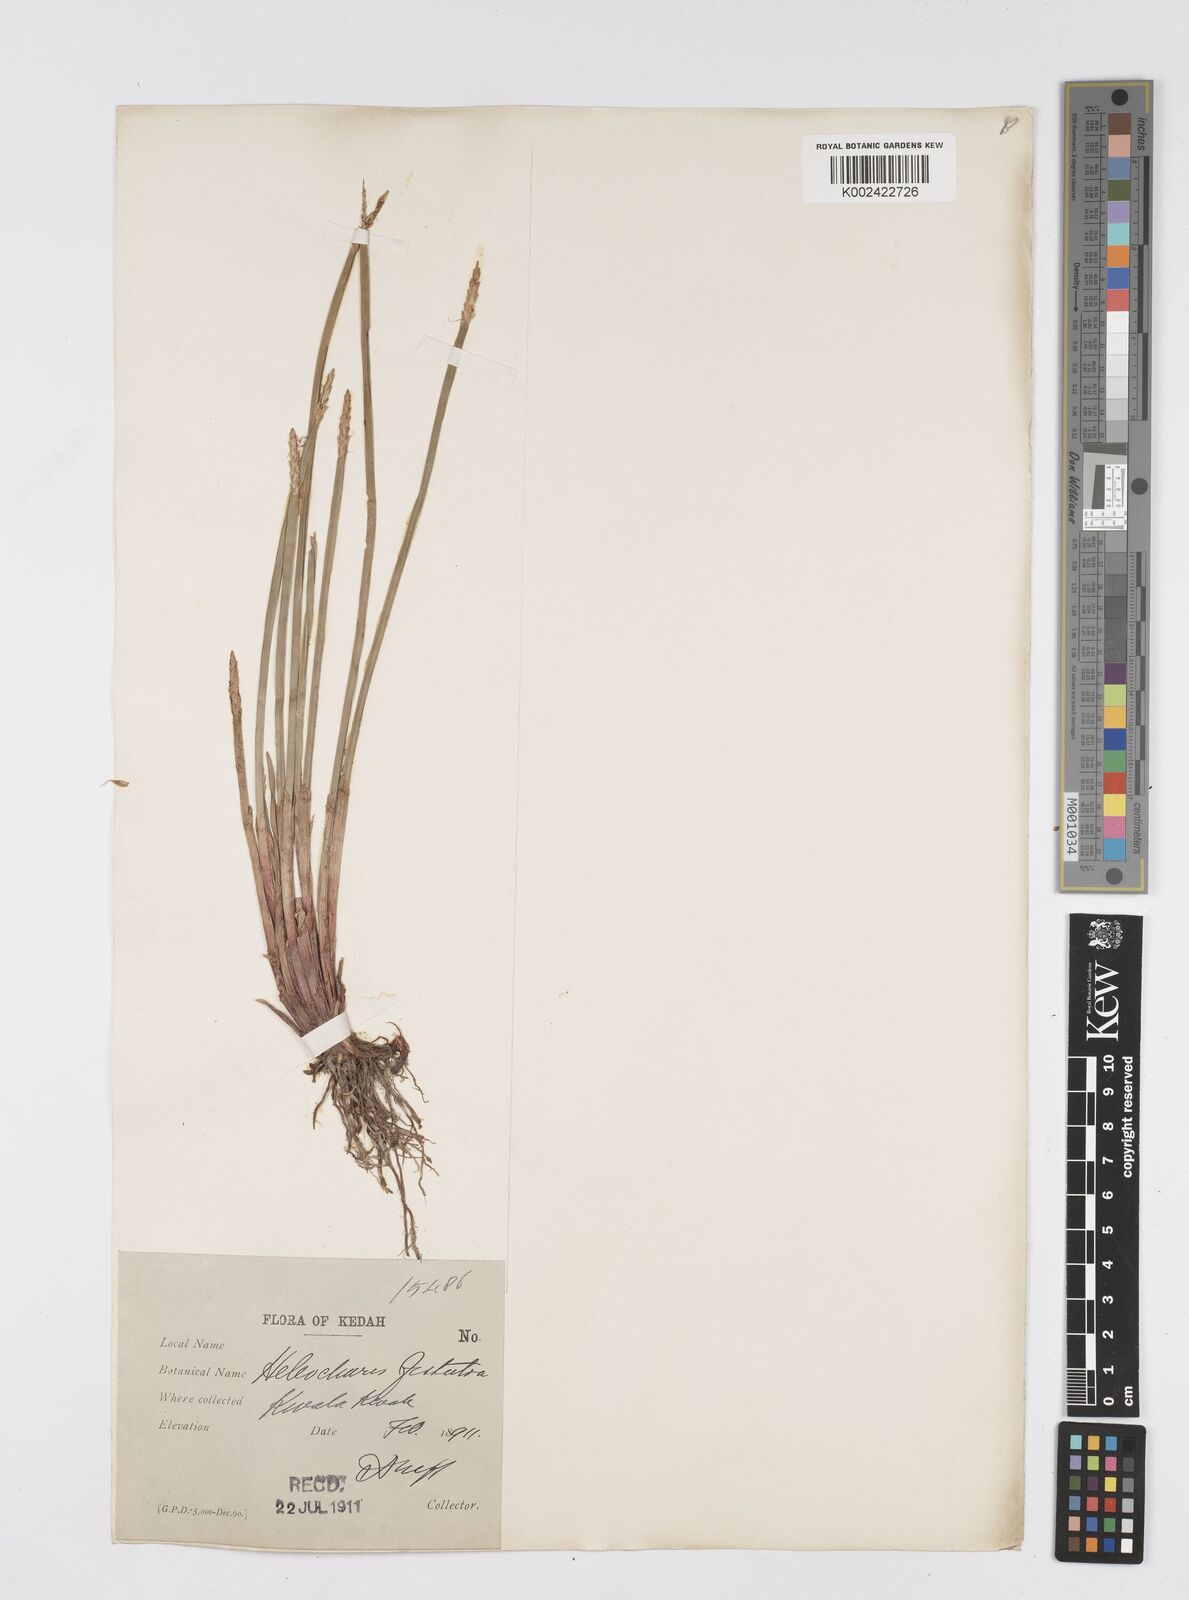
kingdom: Plantae
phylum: Tracheophyta
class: Liliopsida
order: Poales
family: Cyperaceae
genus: Eleocharis
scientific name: Eleocharis acutangula
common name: Acute spikerush
